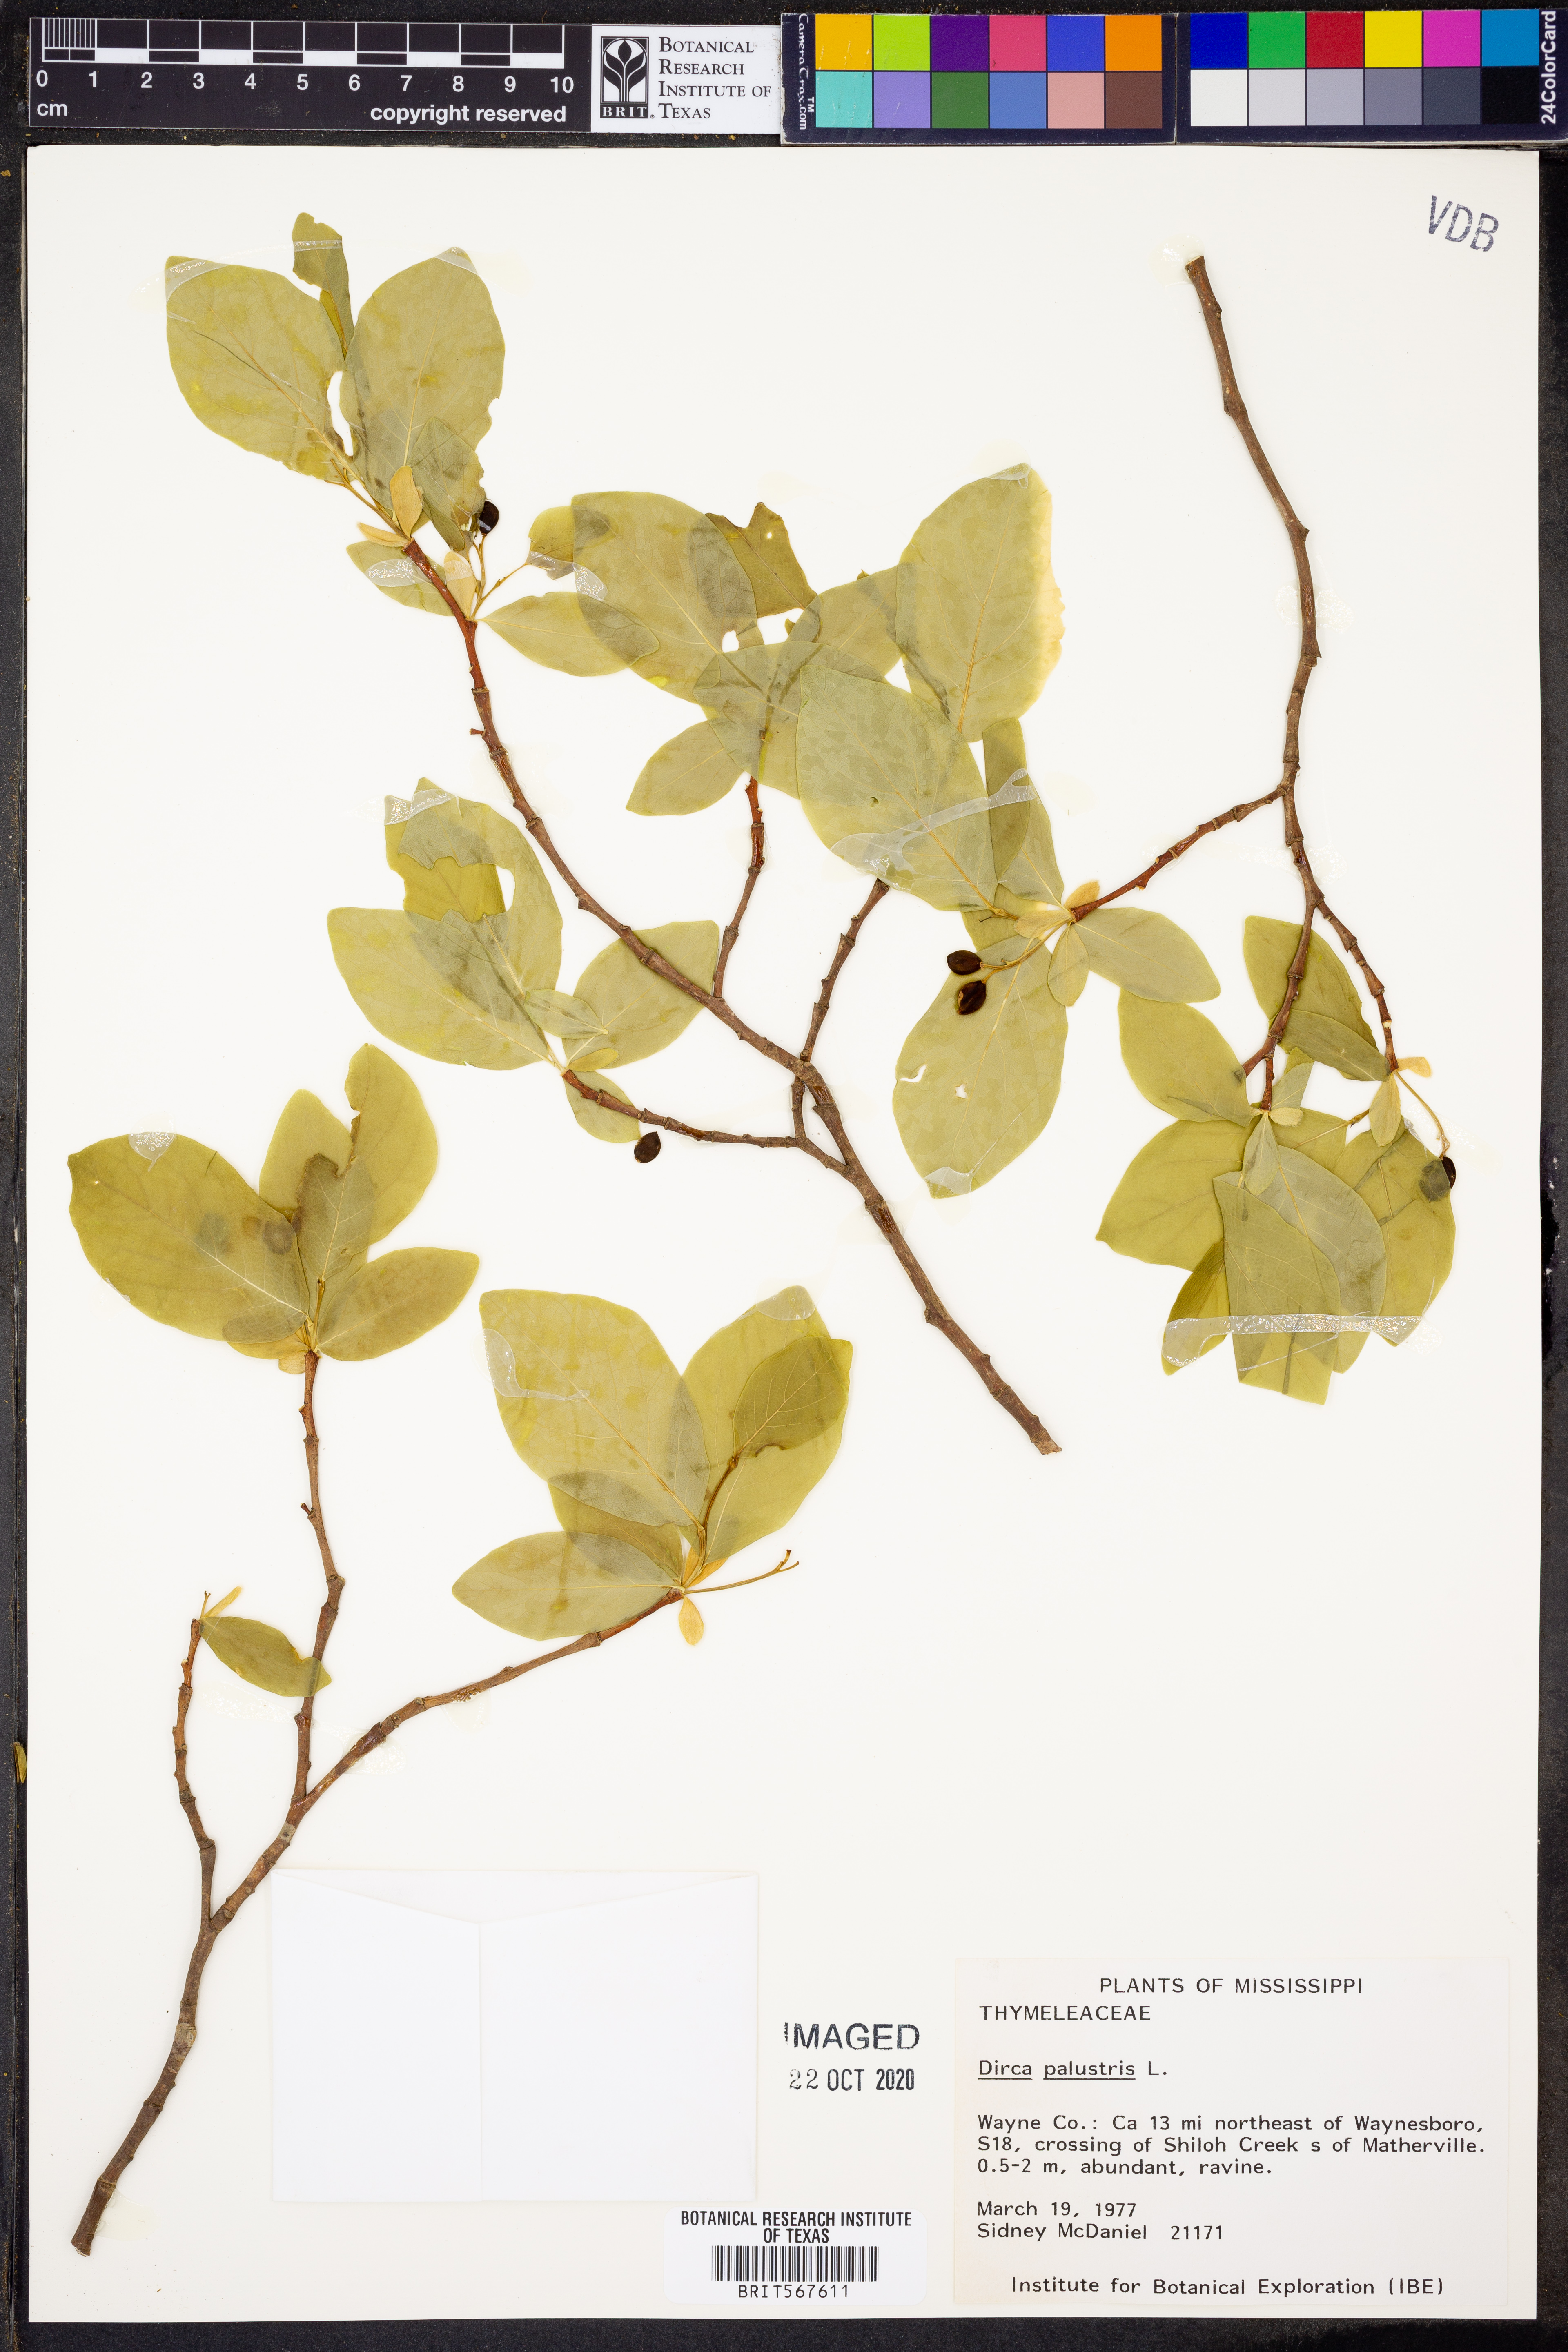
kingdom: Plantae
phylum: Tracheophyta
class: Magnoliopsida
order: Malvales
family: Thymelaeaceae
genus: Dirca
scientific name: Dirca palustris
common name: Leatherwood
